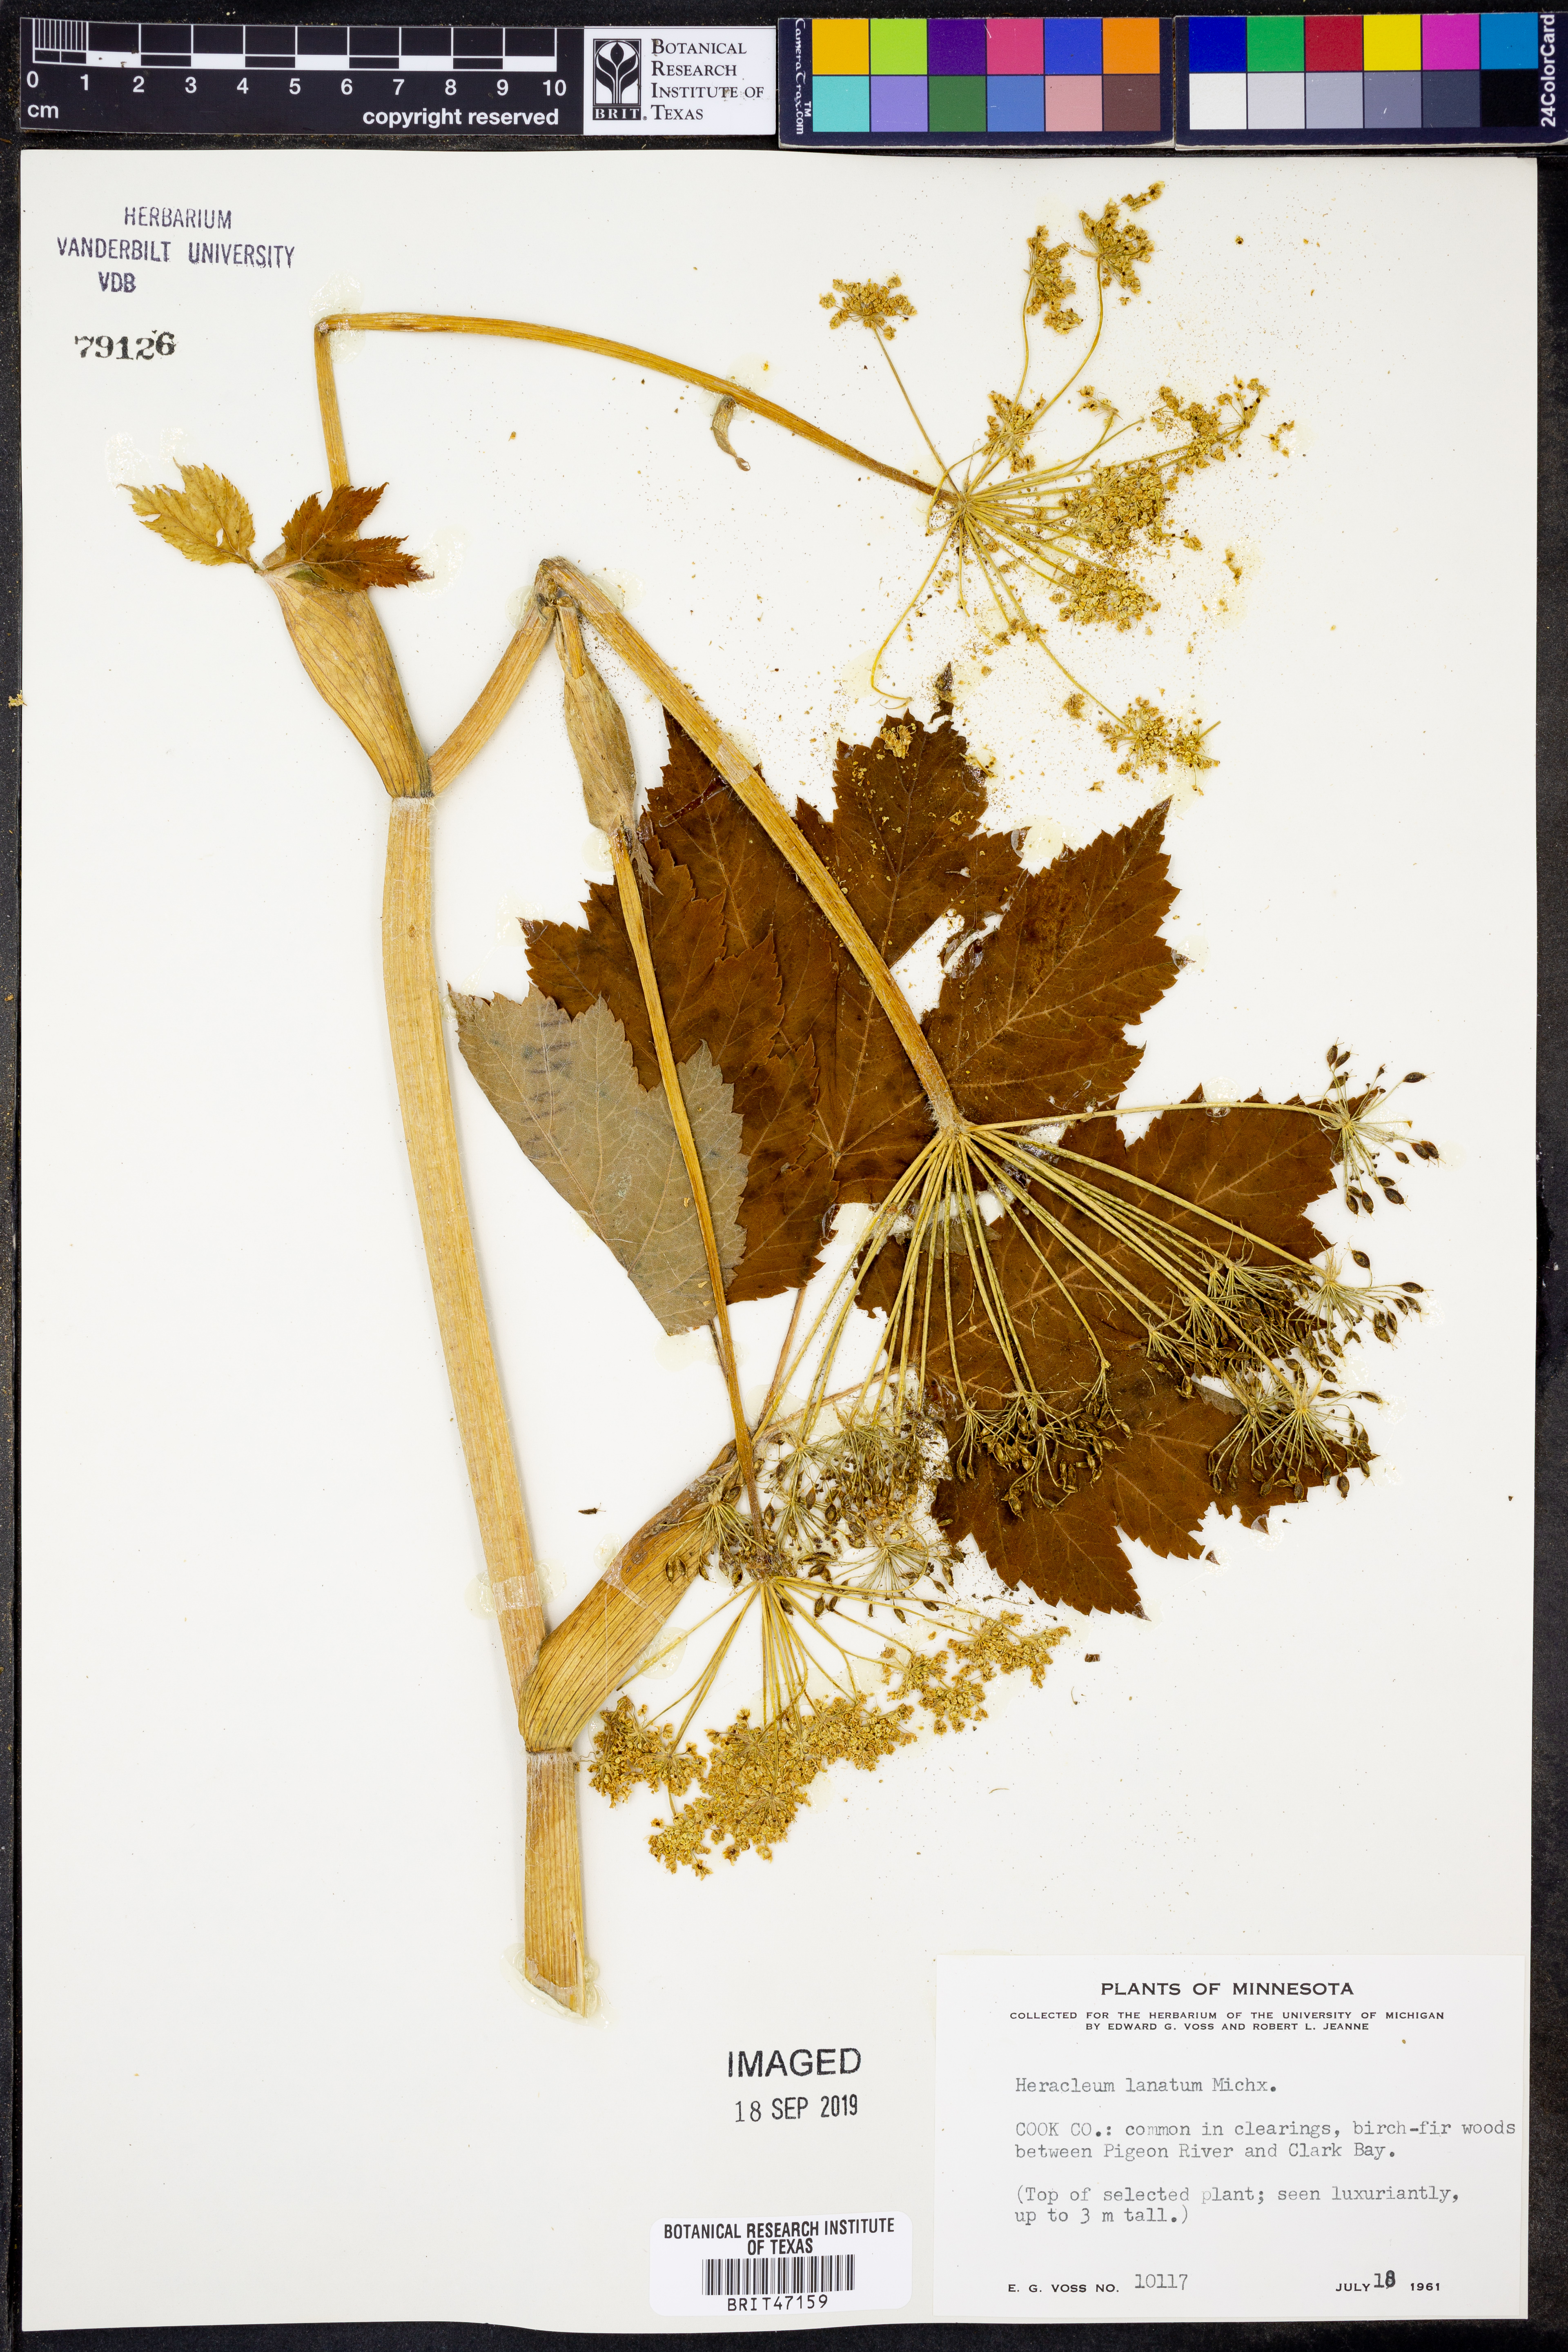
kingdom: Plantae
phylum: Tracheophyta
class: Magnoliopsida
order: Apiales
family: Apiaceae
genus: Heracleum
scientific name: Heracleum maximum
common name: American cow parsnip
